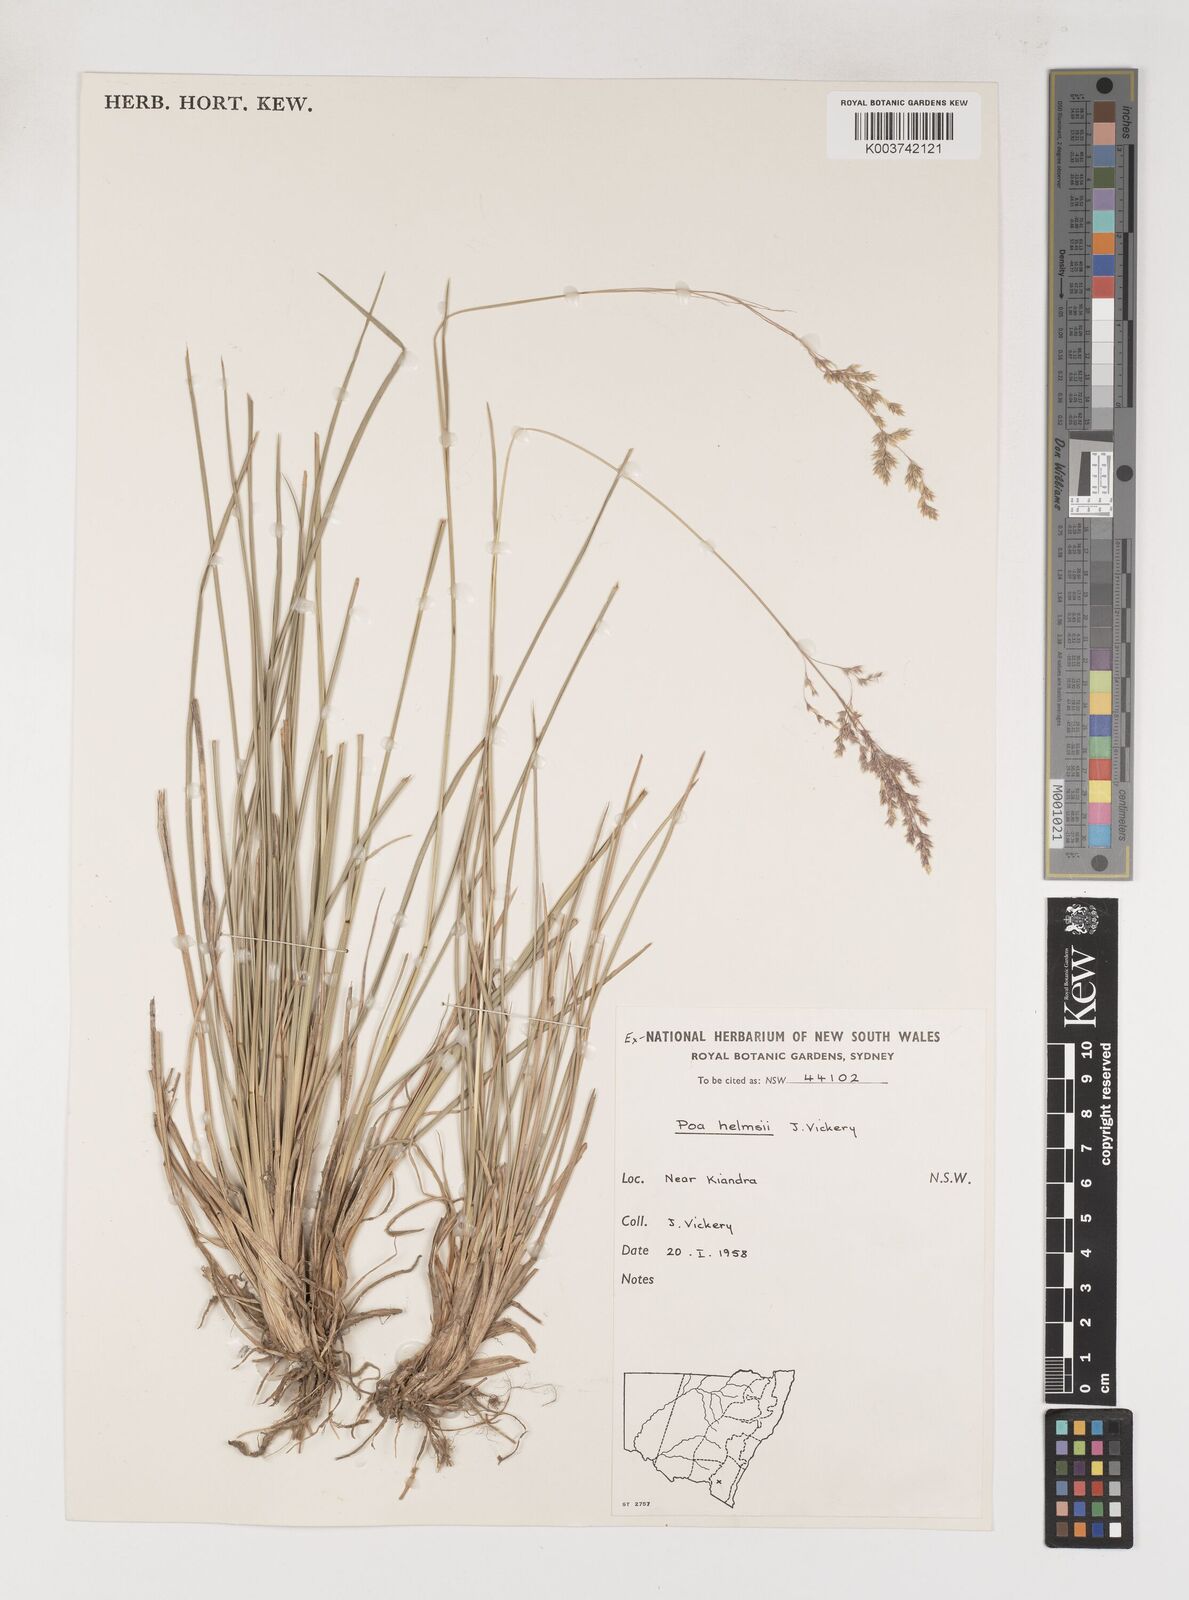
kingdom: Plantae
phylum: Tracheophyta
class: Liliopsida
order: Poales
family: Poaceae
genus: Poa
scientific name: Poa helmsii
